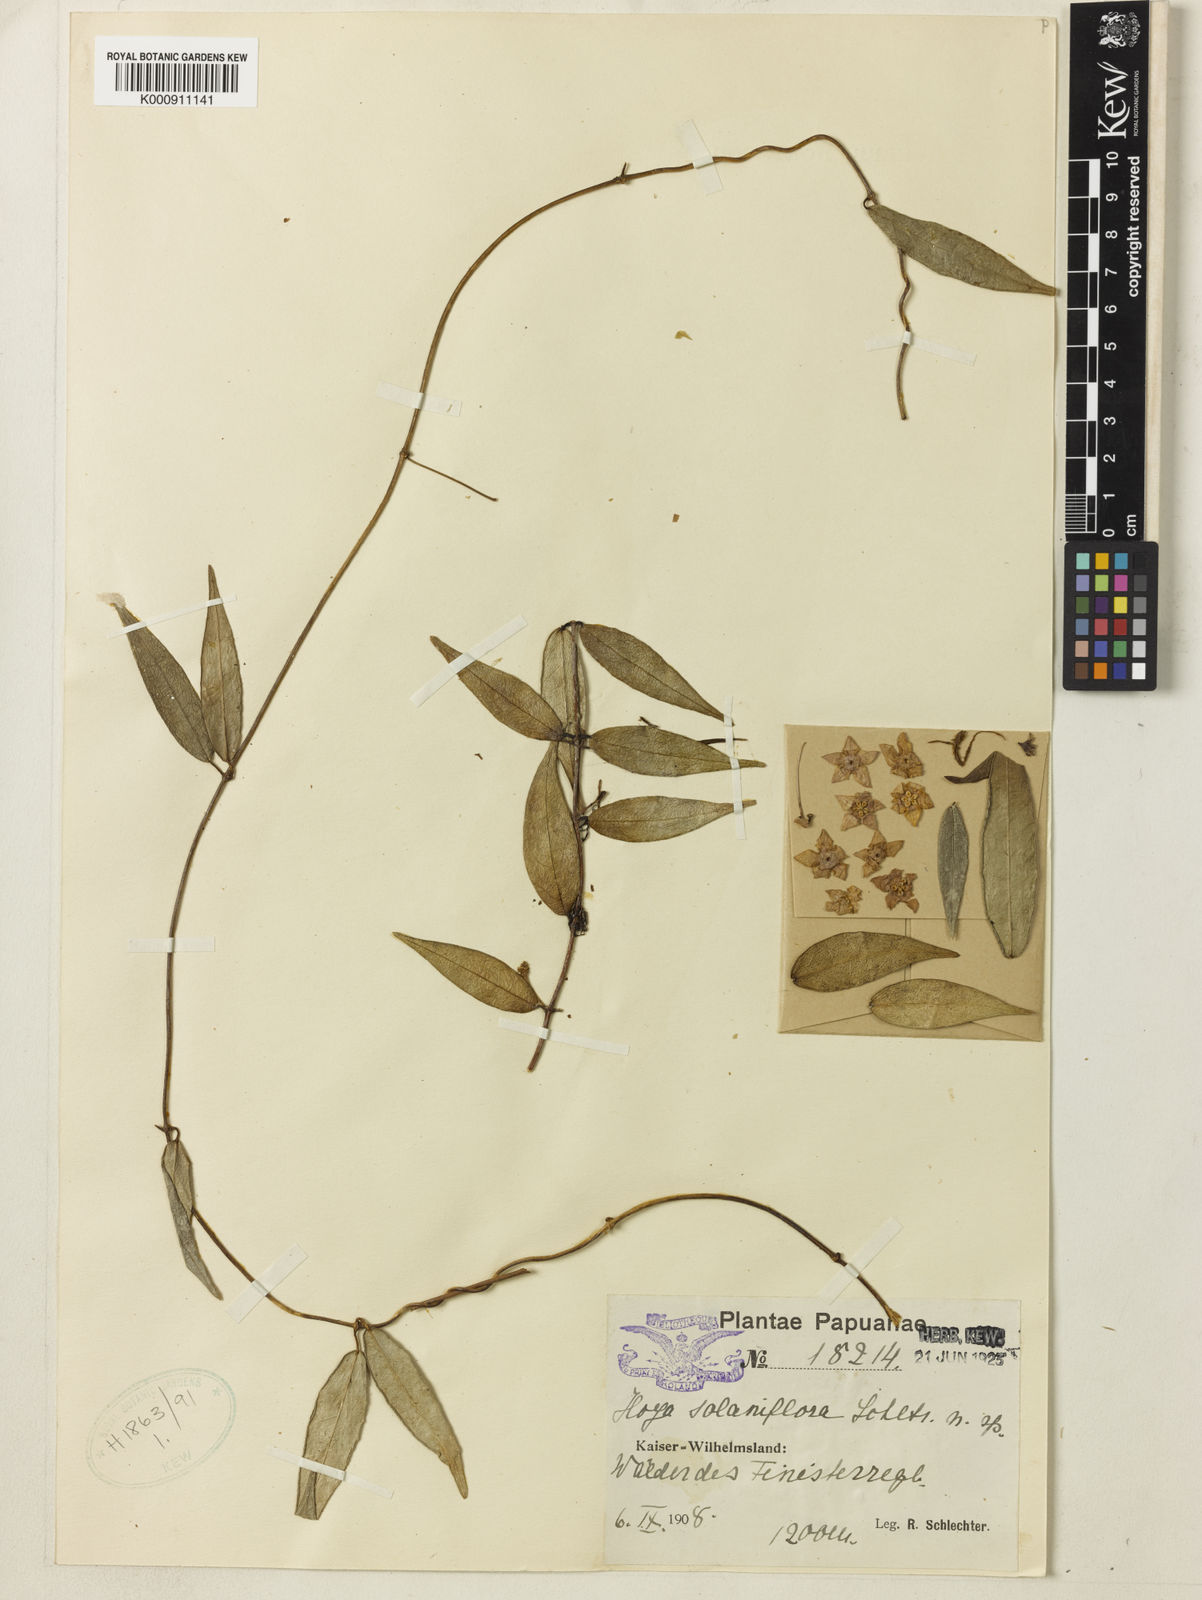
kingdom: Plantae
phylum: Tracheophyta
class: Magnoliopsida
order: Gentianales
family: Apocynaceae
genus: Hoya
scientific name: Hoya solaniflora
